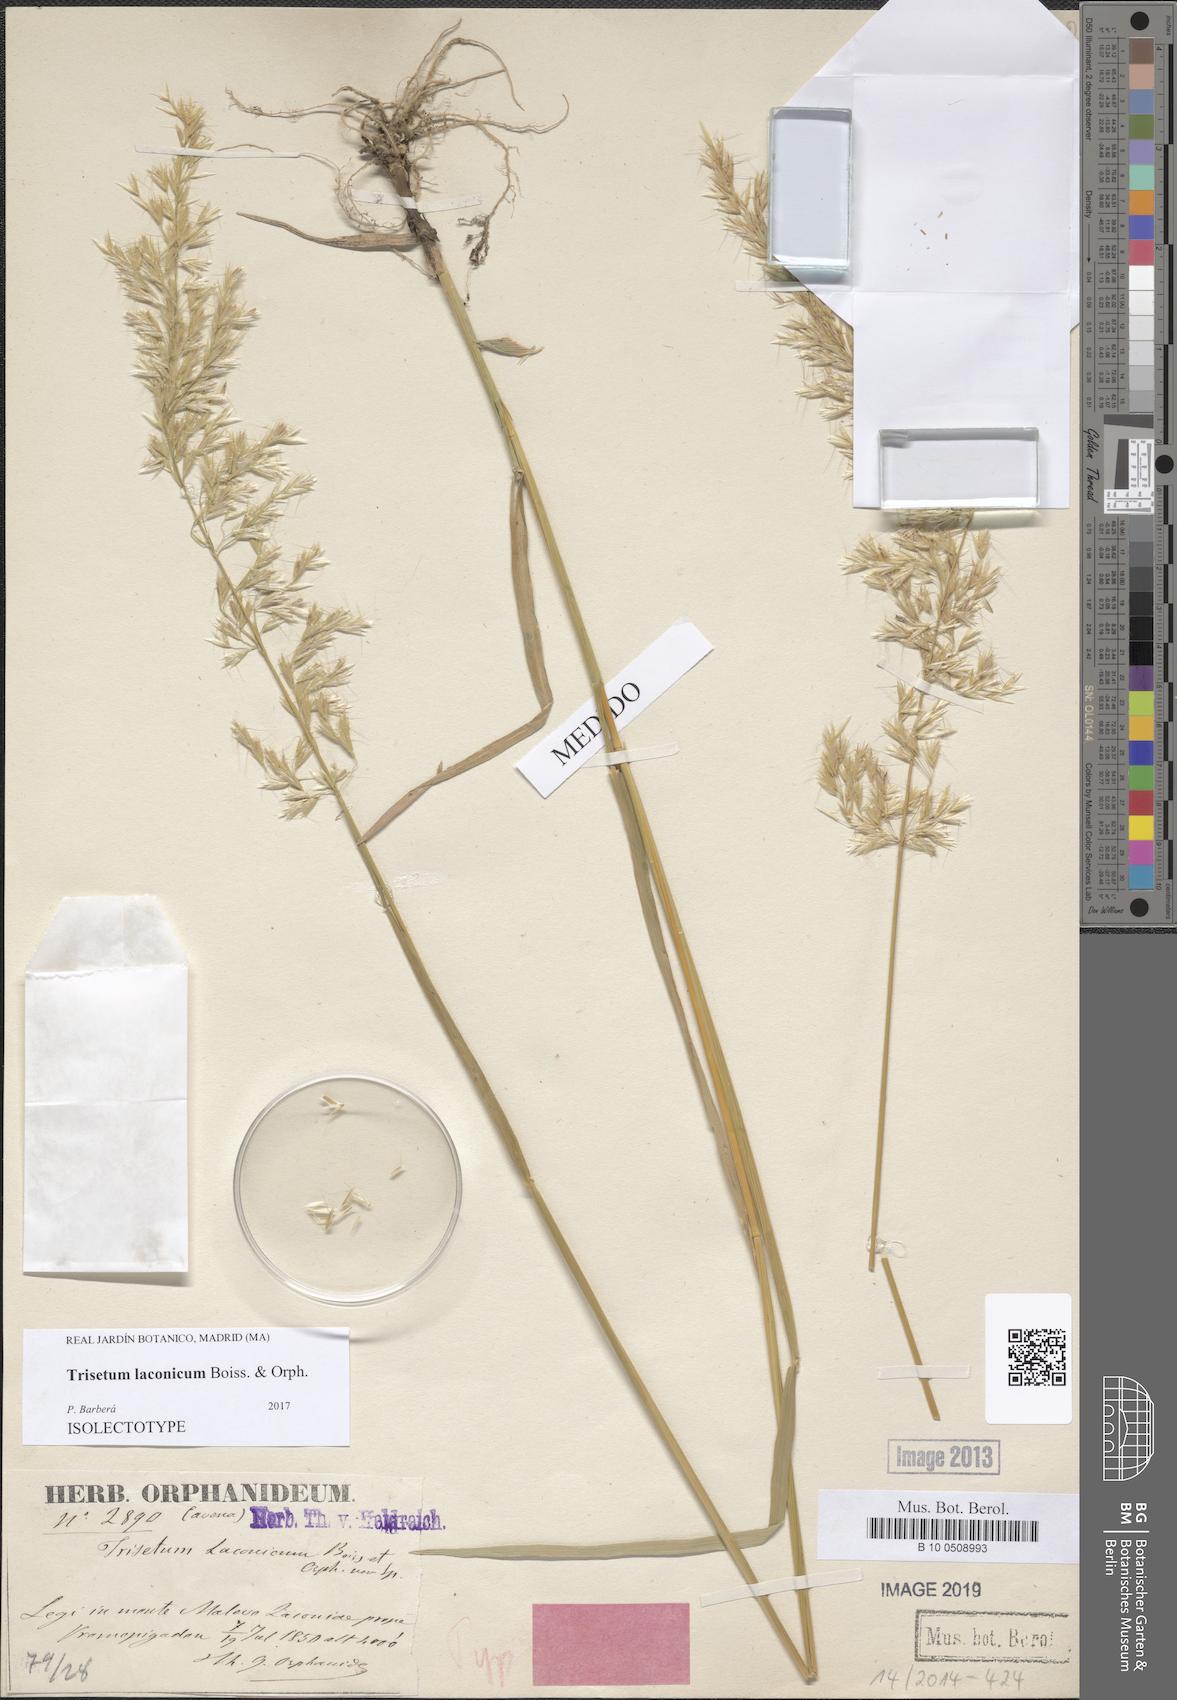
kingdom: Plantae
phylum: Tracheophyta
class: Liliopsida
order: Poales
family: Poaceae
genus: Trisetum
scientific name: Trisetum laconicum
